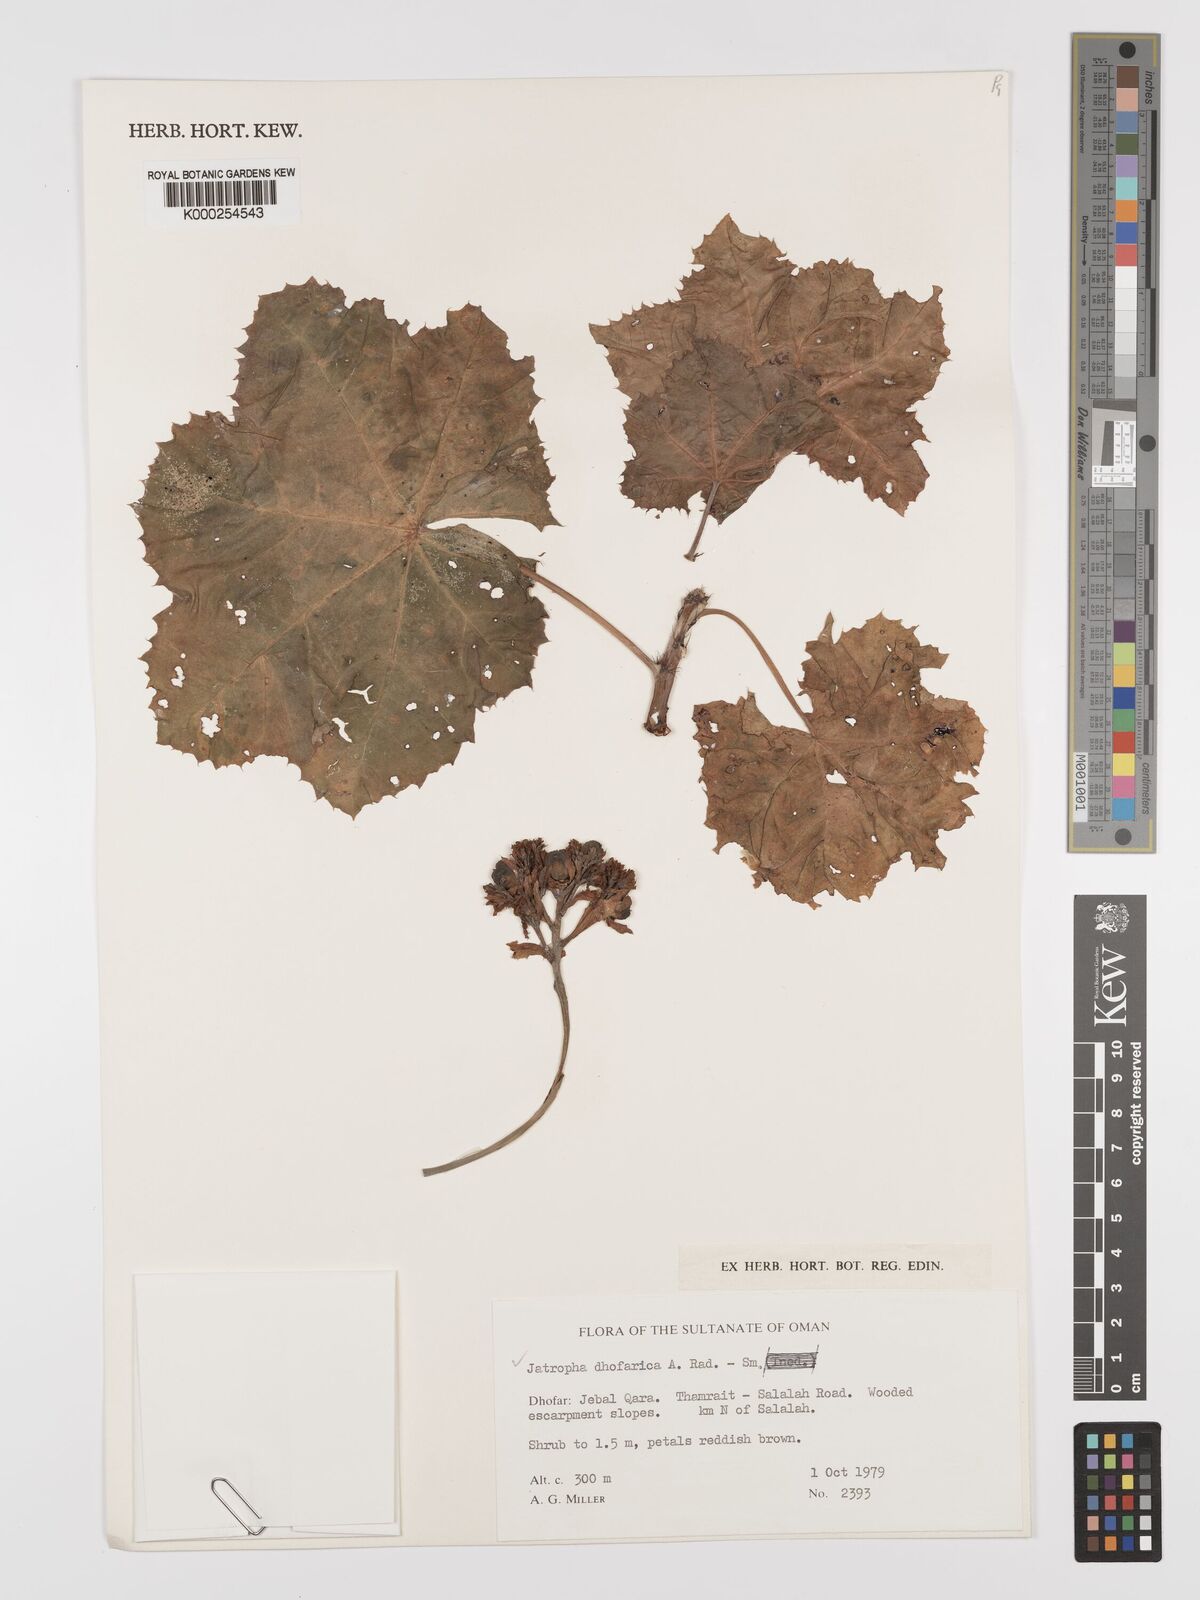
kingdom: Plantae
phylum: Tracheophyta
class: Magnoliopsida
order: Malpighiales
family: Euphorbiaceae
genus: Jatropha
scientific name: Jatropha dhofarica
